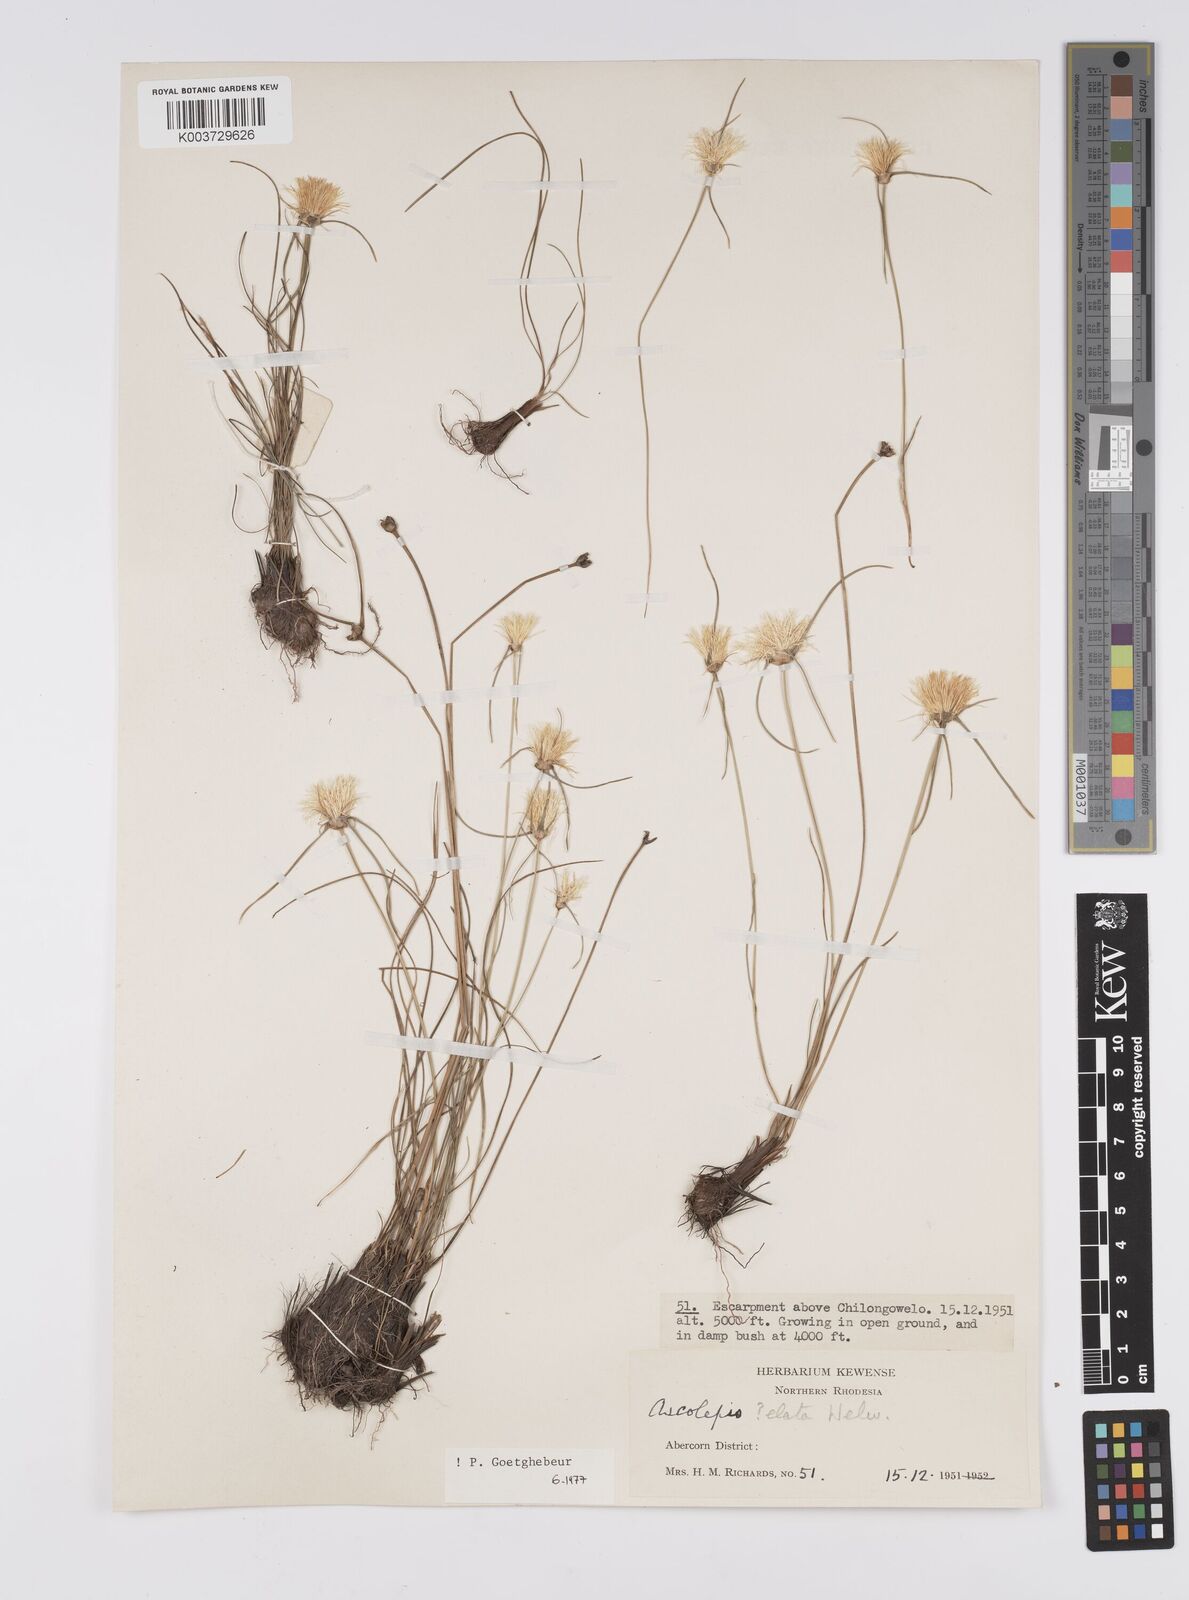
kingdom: Plantae
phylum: Tracheophyta
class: Liliopsida
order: Poales
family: Cyperaceae
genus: Cyperus
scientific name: Cyperus
